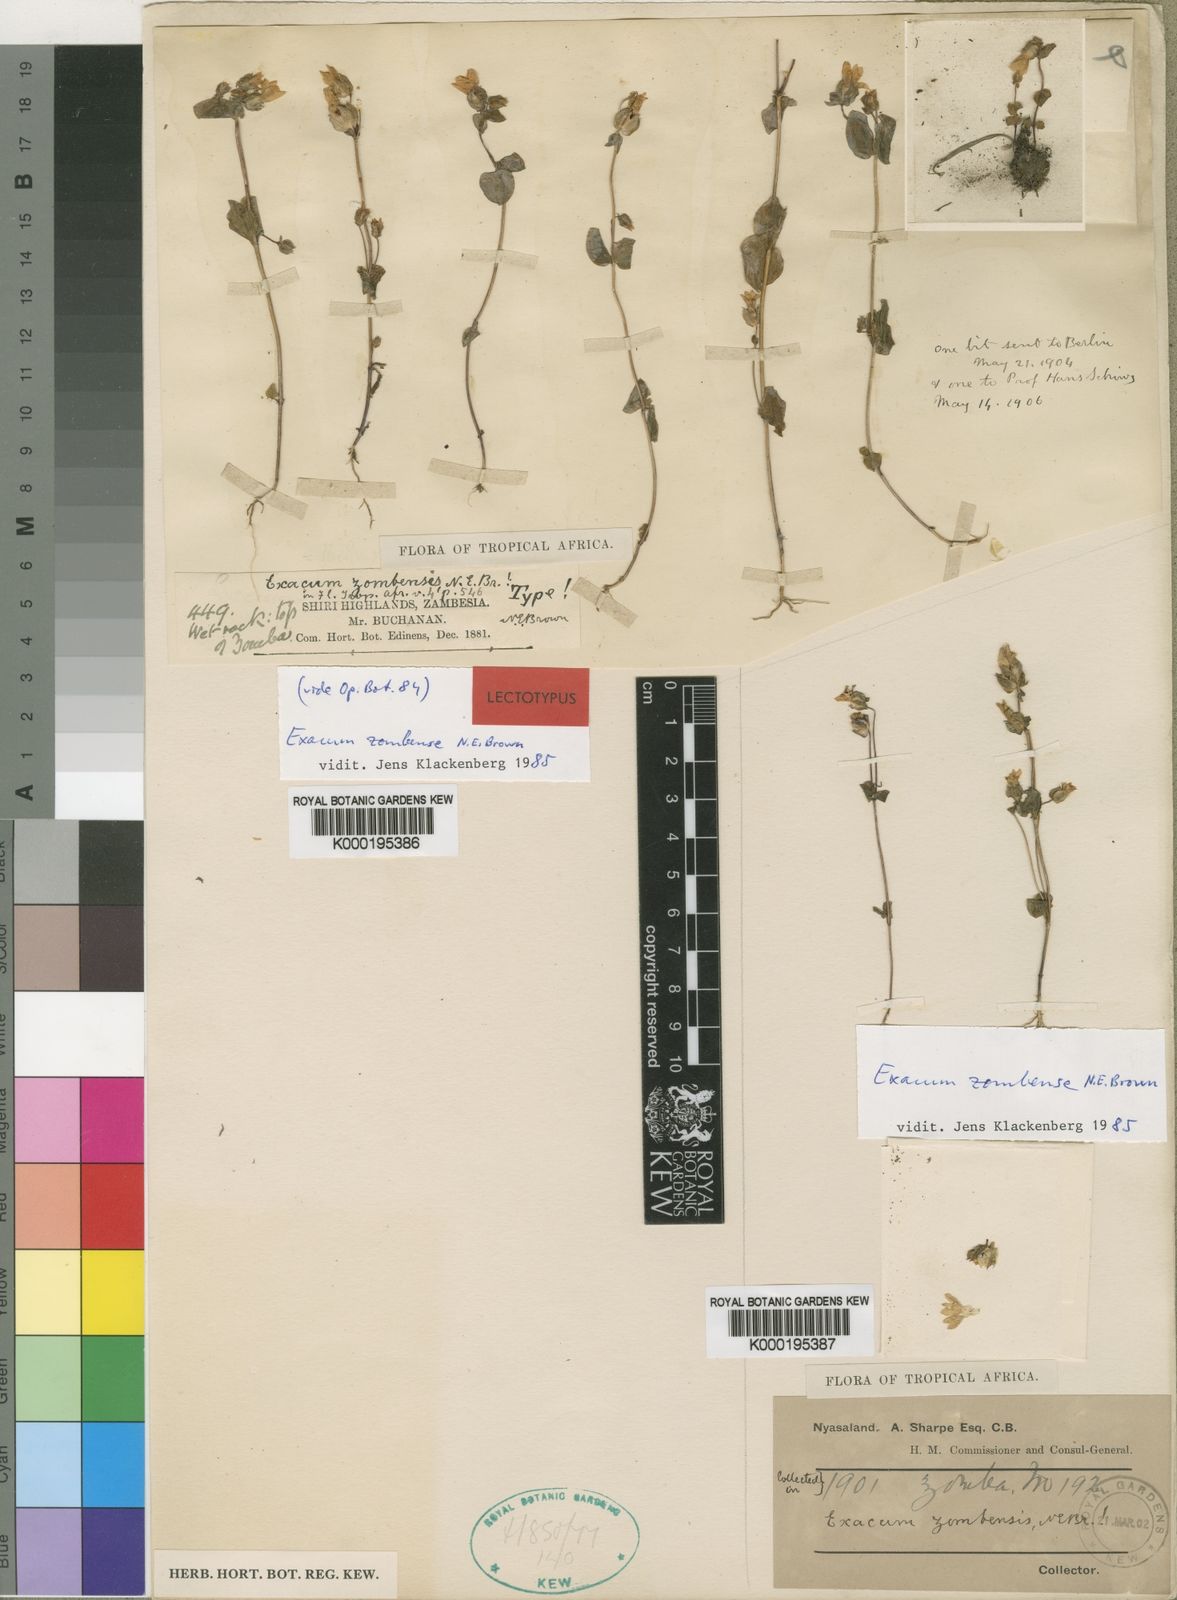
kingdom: Plantae
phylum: Tracheophyta
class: Magnoliopsida
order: Gentianales
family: Gentianaceae
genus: Exacum
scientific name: Exacum
